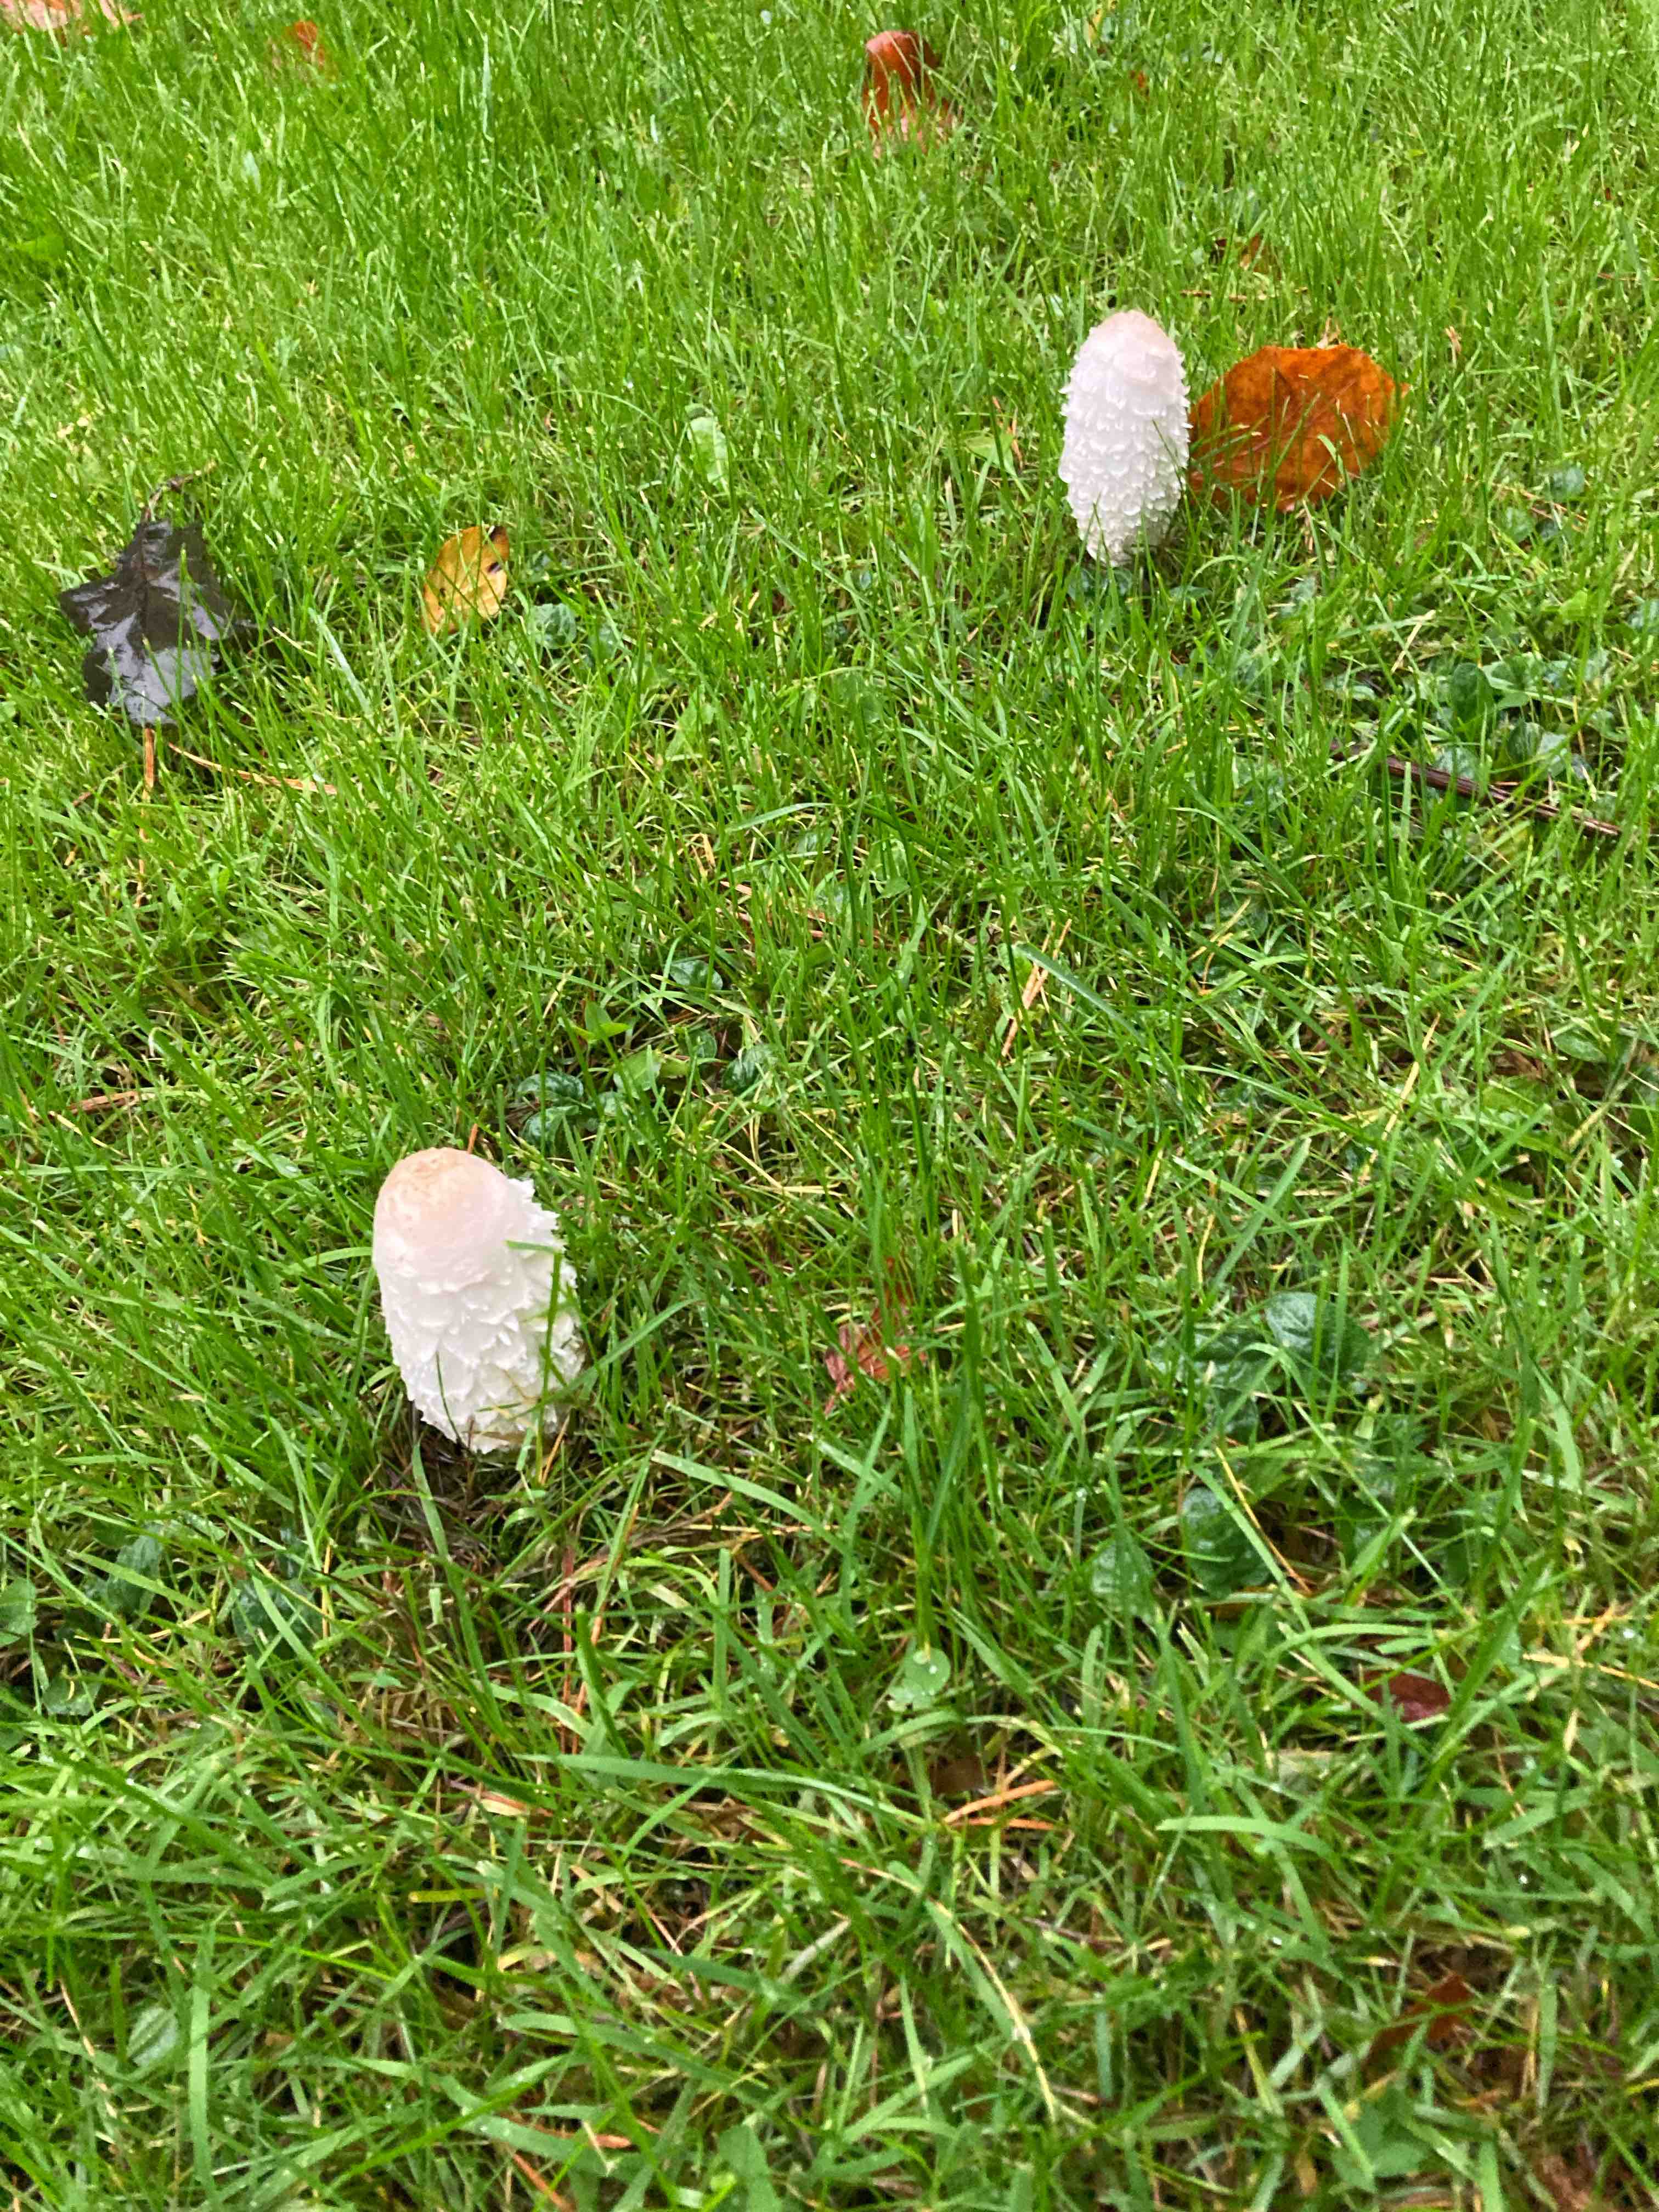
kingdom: Fungi
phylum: Basidiomycota
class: Agaricomycetes
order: Agaricales
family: Agaricaceae
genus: Coprinus
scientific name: Coprinus comatus
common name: stor parykhat
